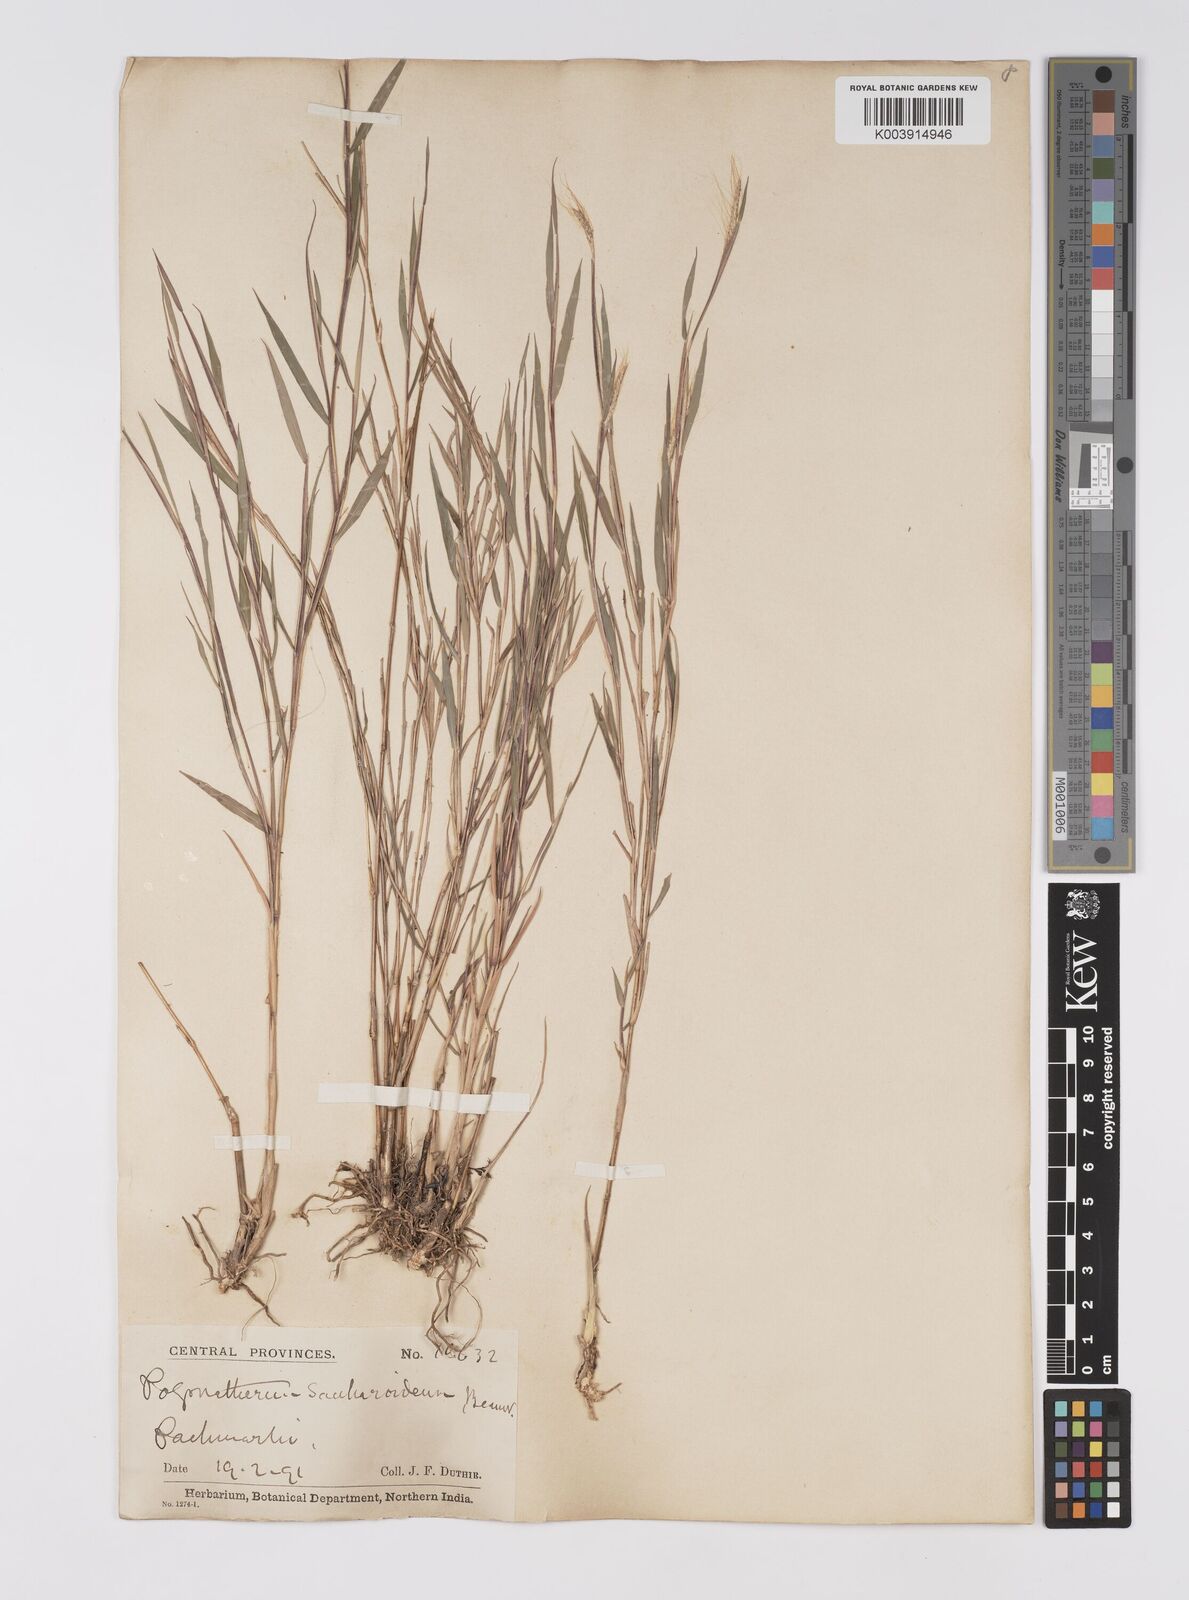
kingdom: Plantae
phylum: Tracheophyta
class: Liliopsida
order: Poales
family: Poaceae
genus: Pogonatherum
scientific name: Pogonatherum paniceum
